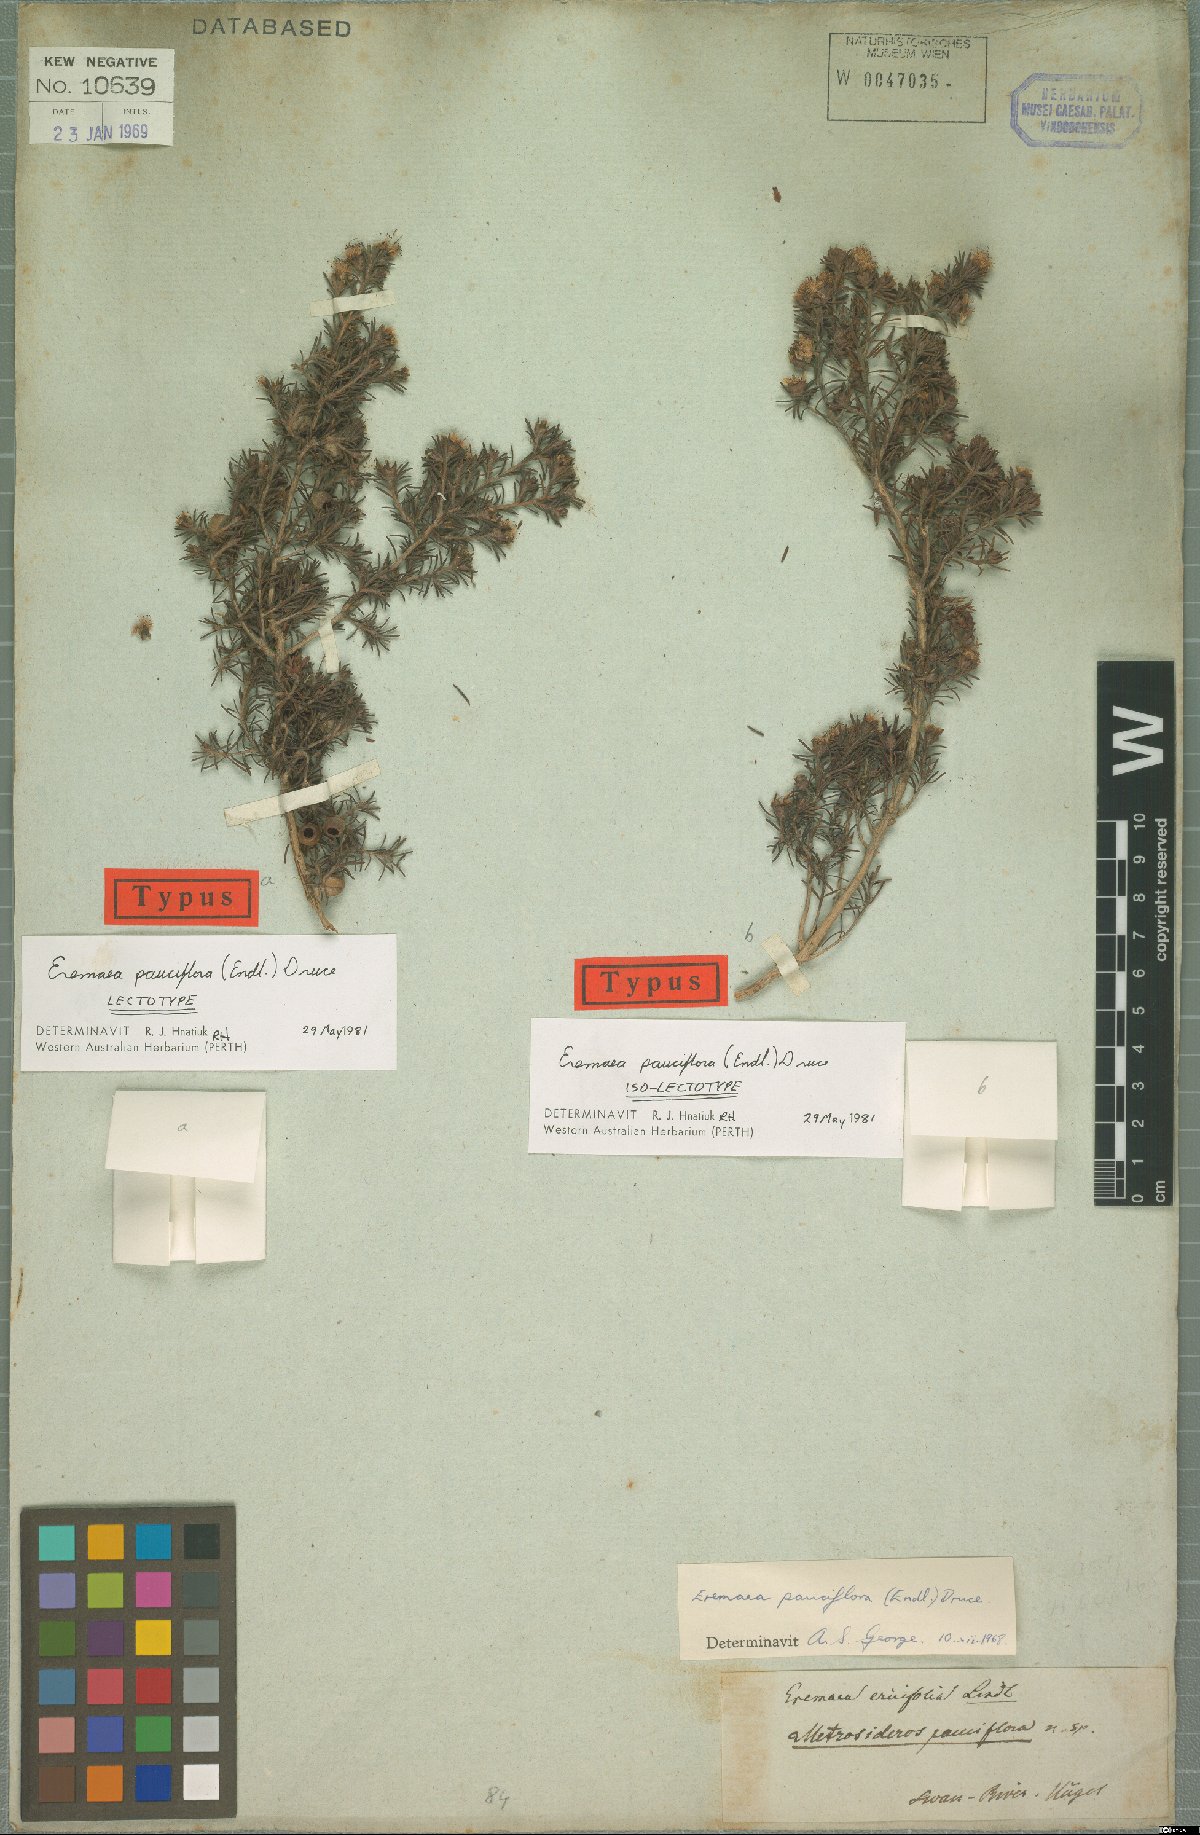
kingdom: Plantae
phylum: Tracheophyta
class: Magnoliopsida
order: Myrtales
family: Myrtaceae
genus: Melaleuca
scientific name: Melaleuca rariflora
